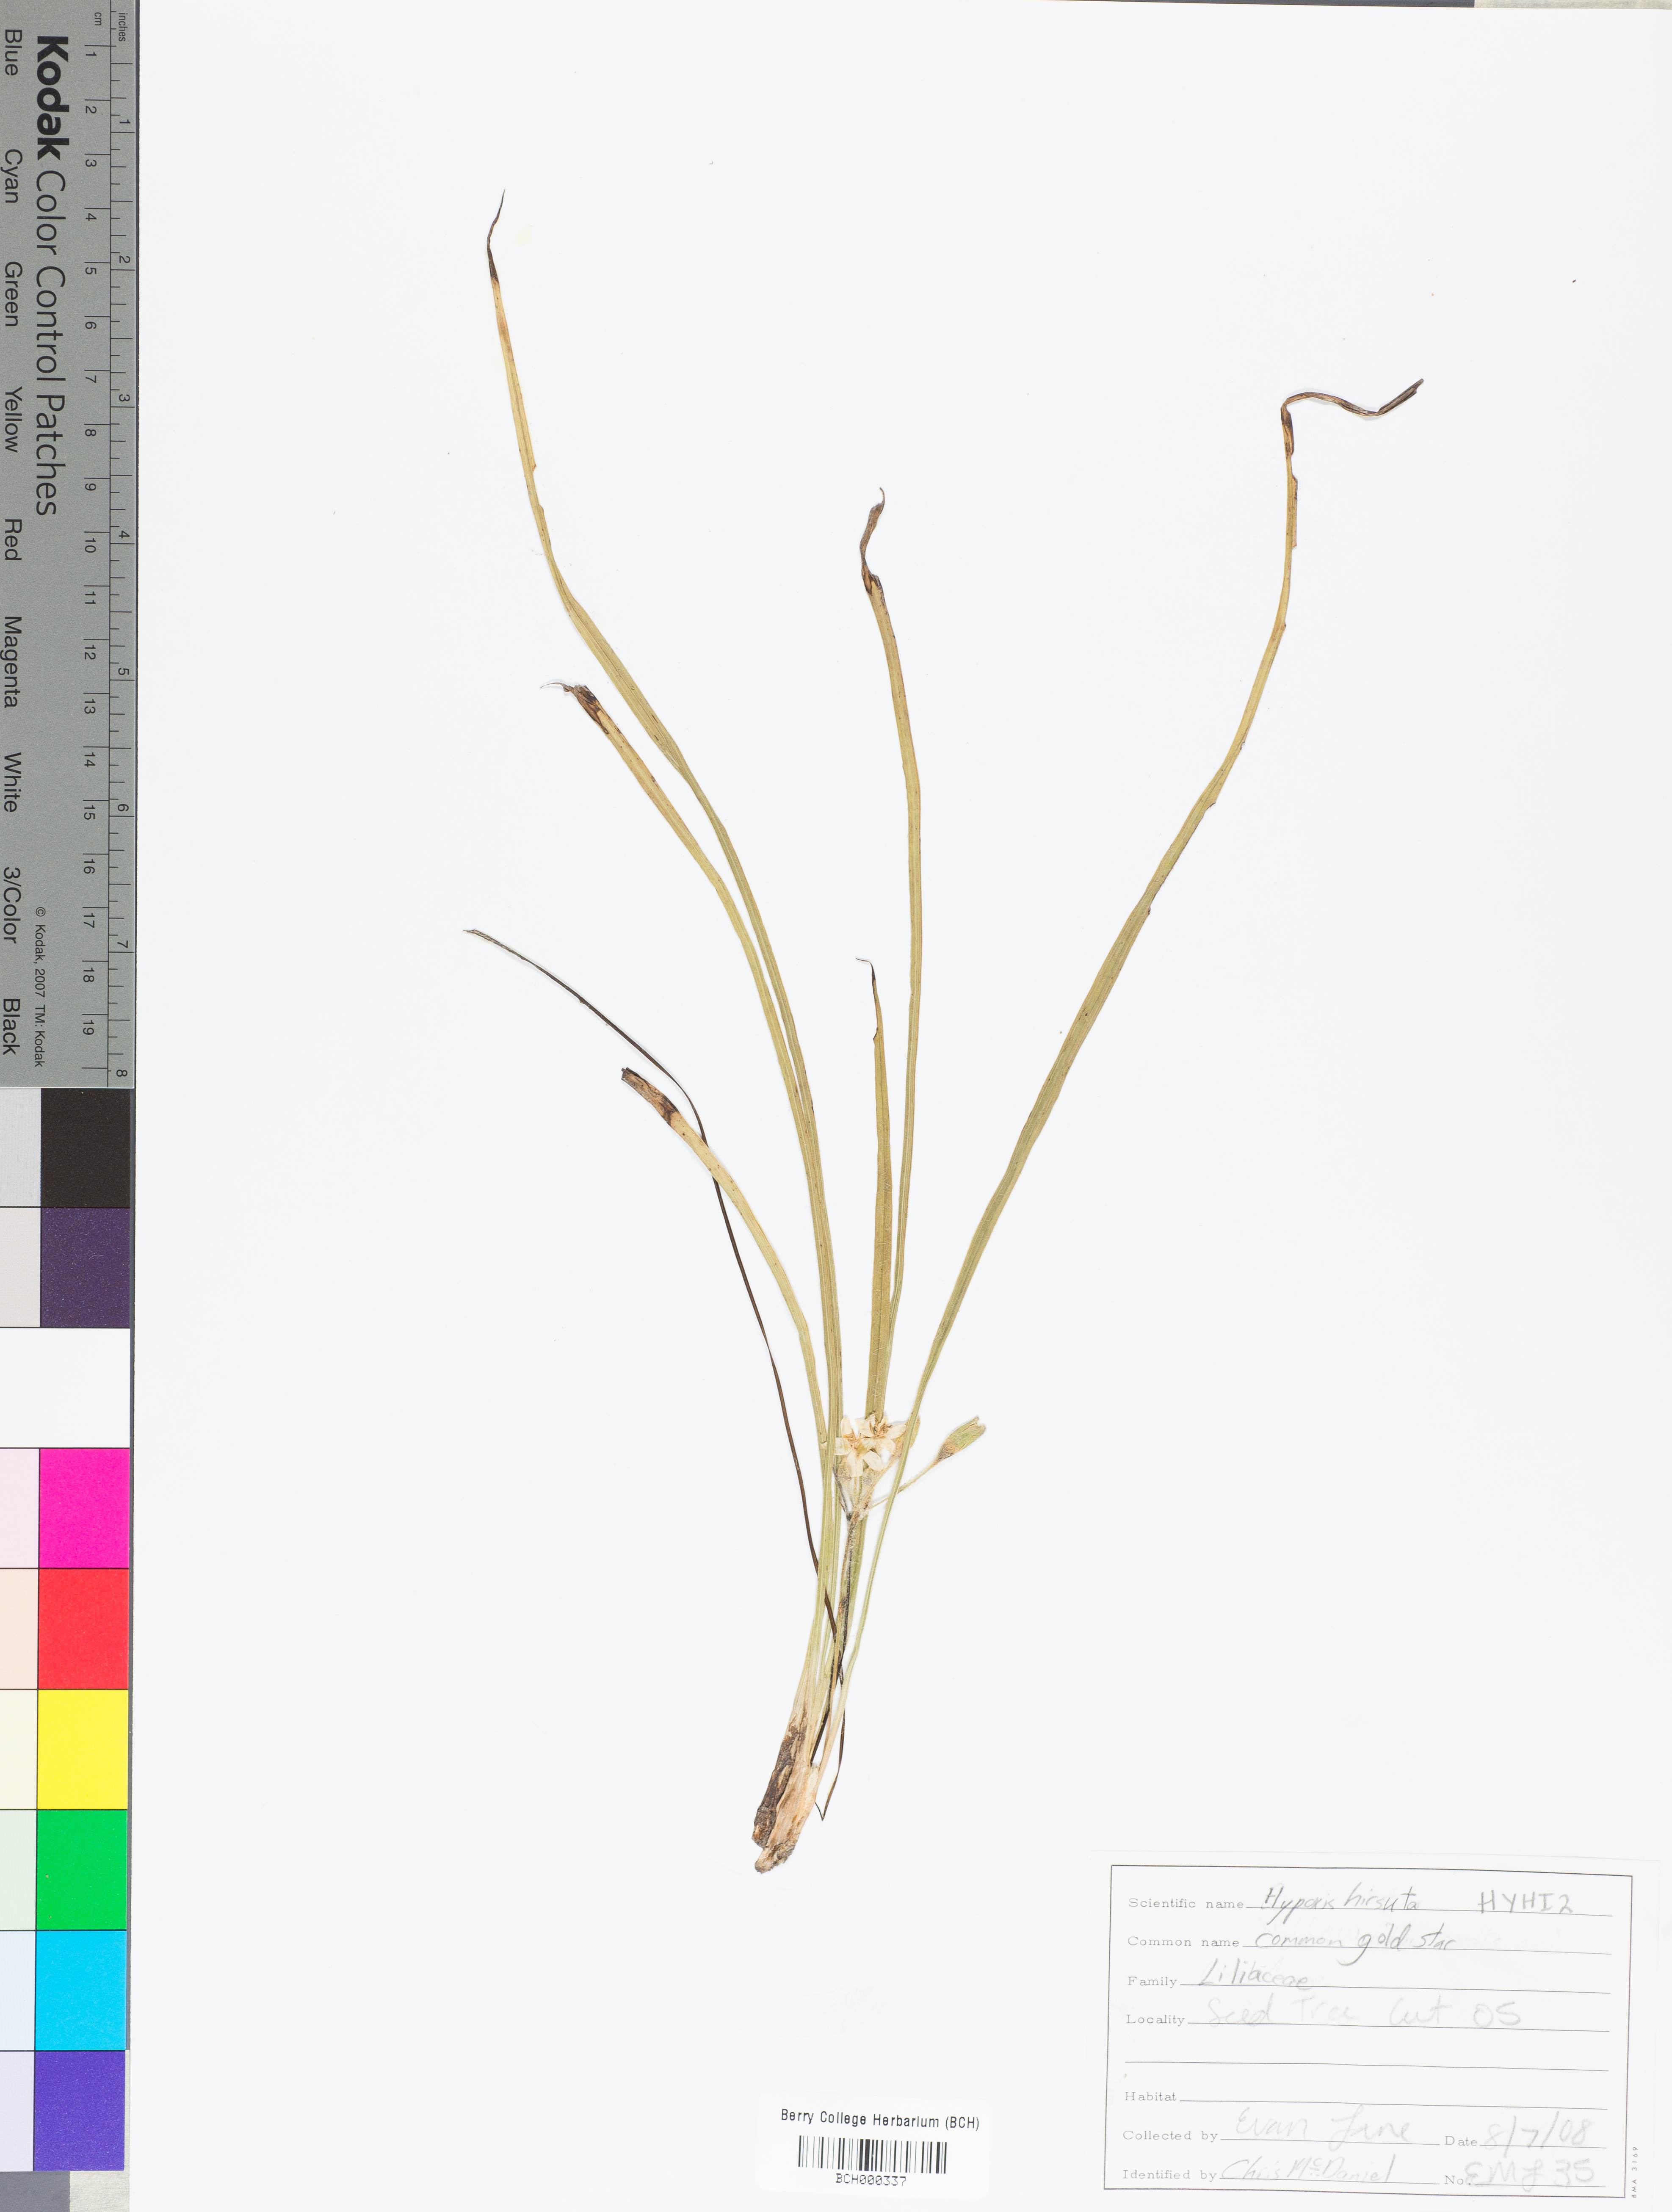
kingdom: Plantae
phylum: Tracheophyta
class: Liliopsida
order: Asparagales
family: Hypoxidaceae
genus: Hypoxis
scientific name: Hypoxis hirsuta
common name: Common goldstar
